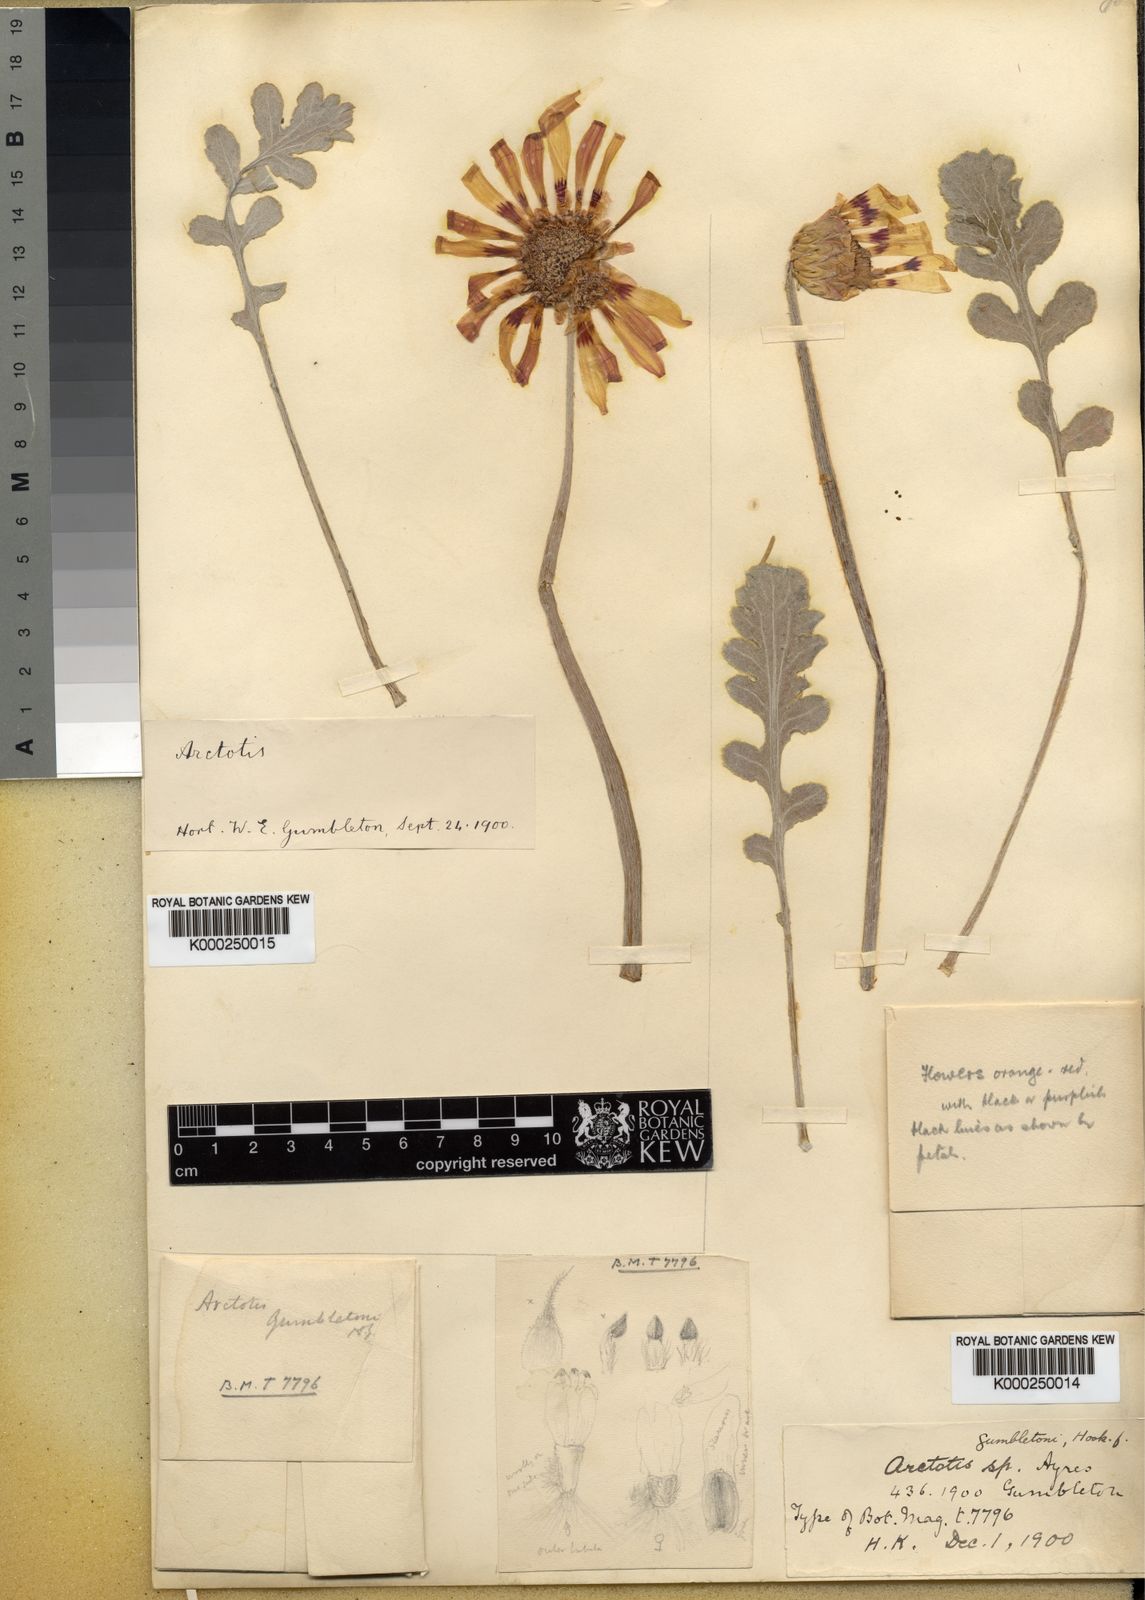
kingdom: Plantae
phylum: Tracheophyta
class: Magnoliopsida
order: Asterales
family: Asteraceae
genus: Arctotis
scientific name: Arctotis incisa
